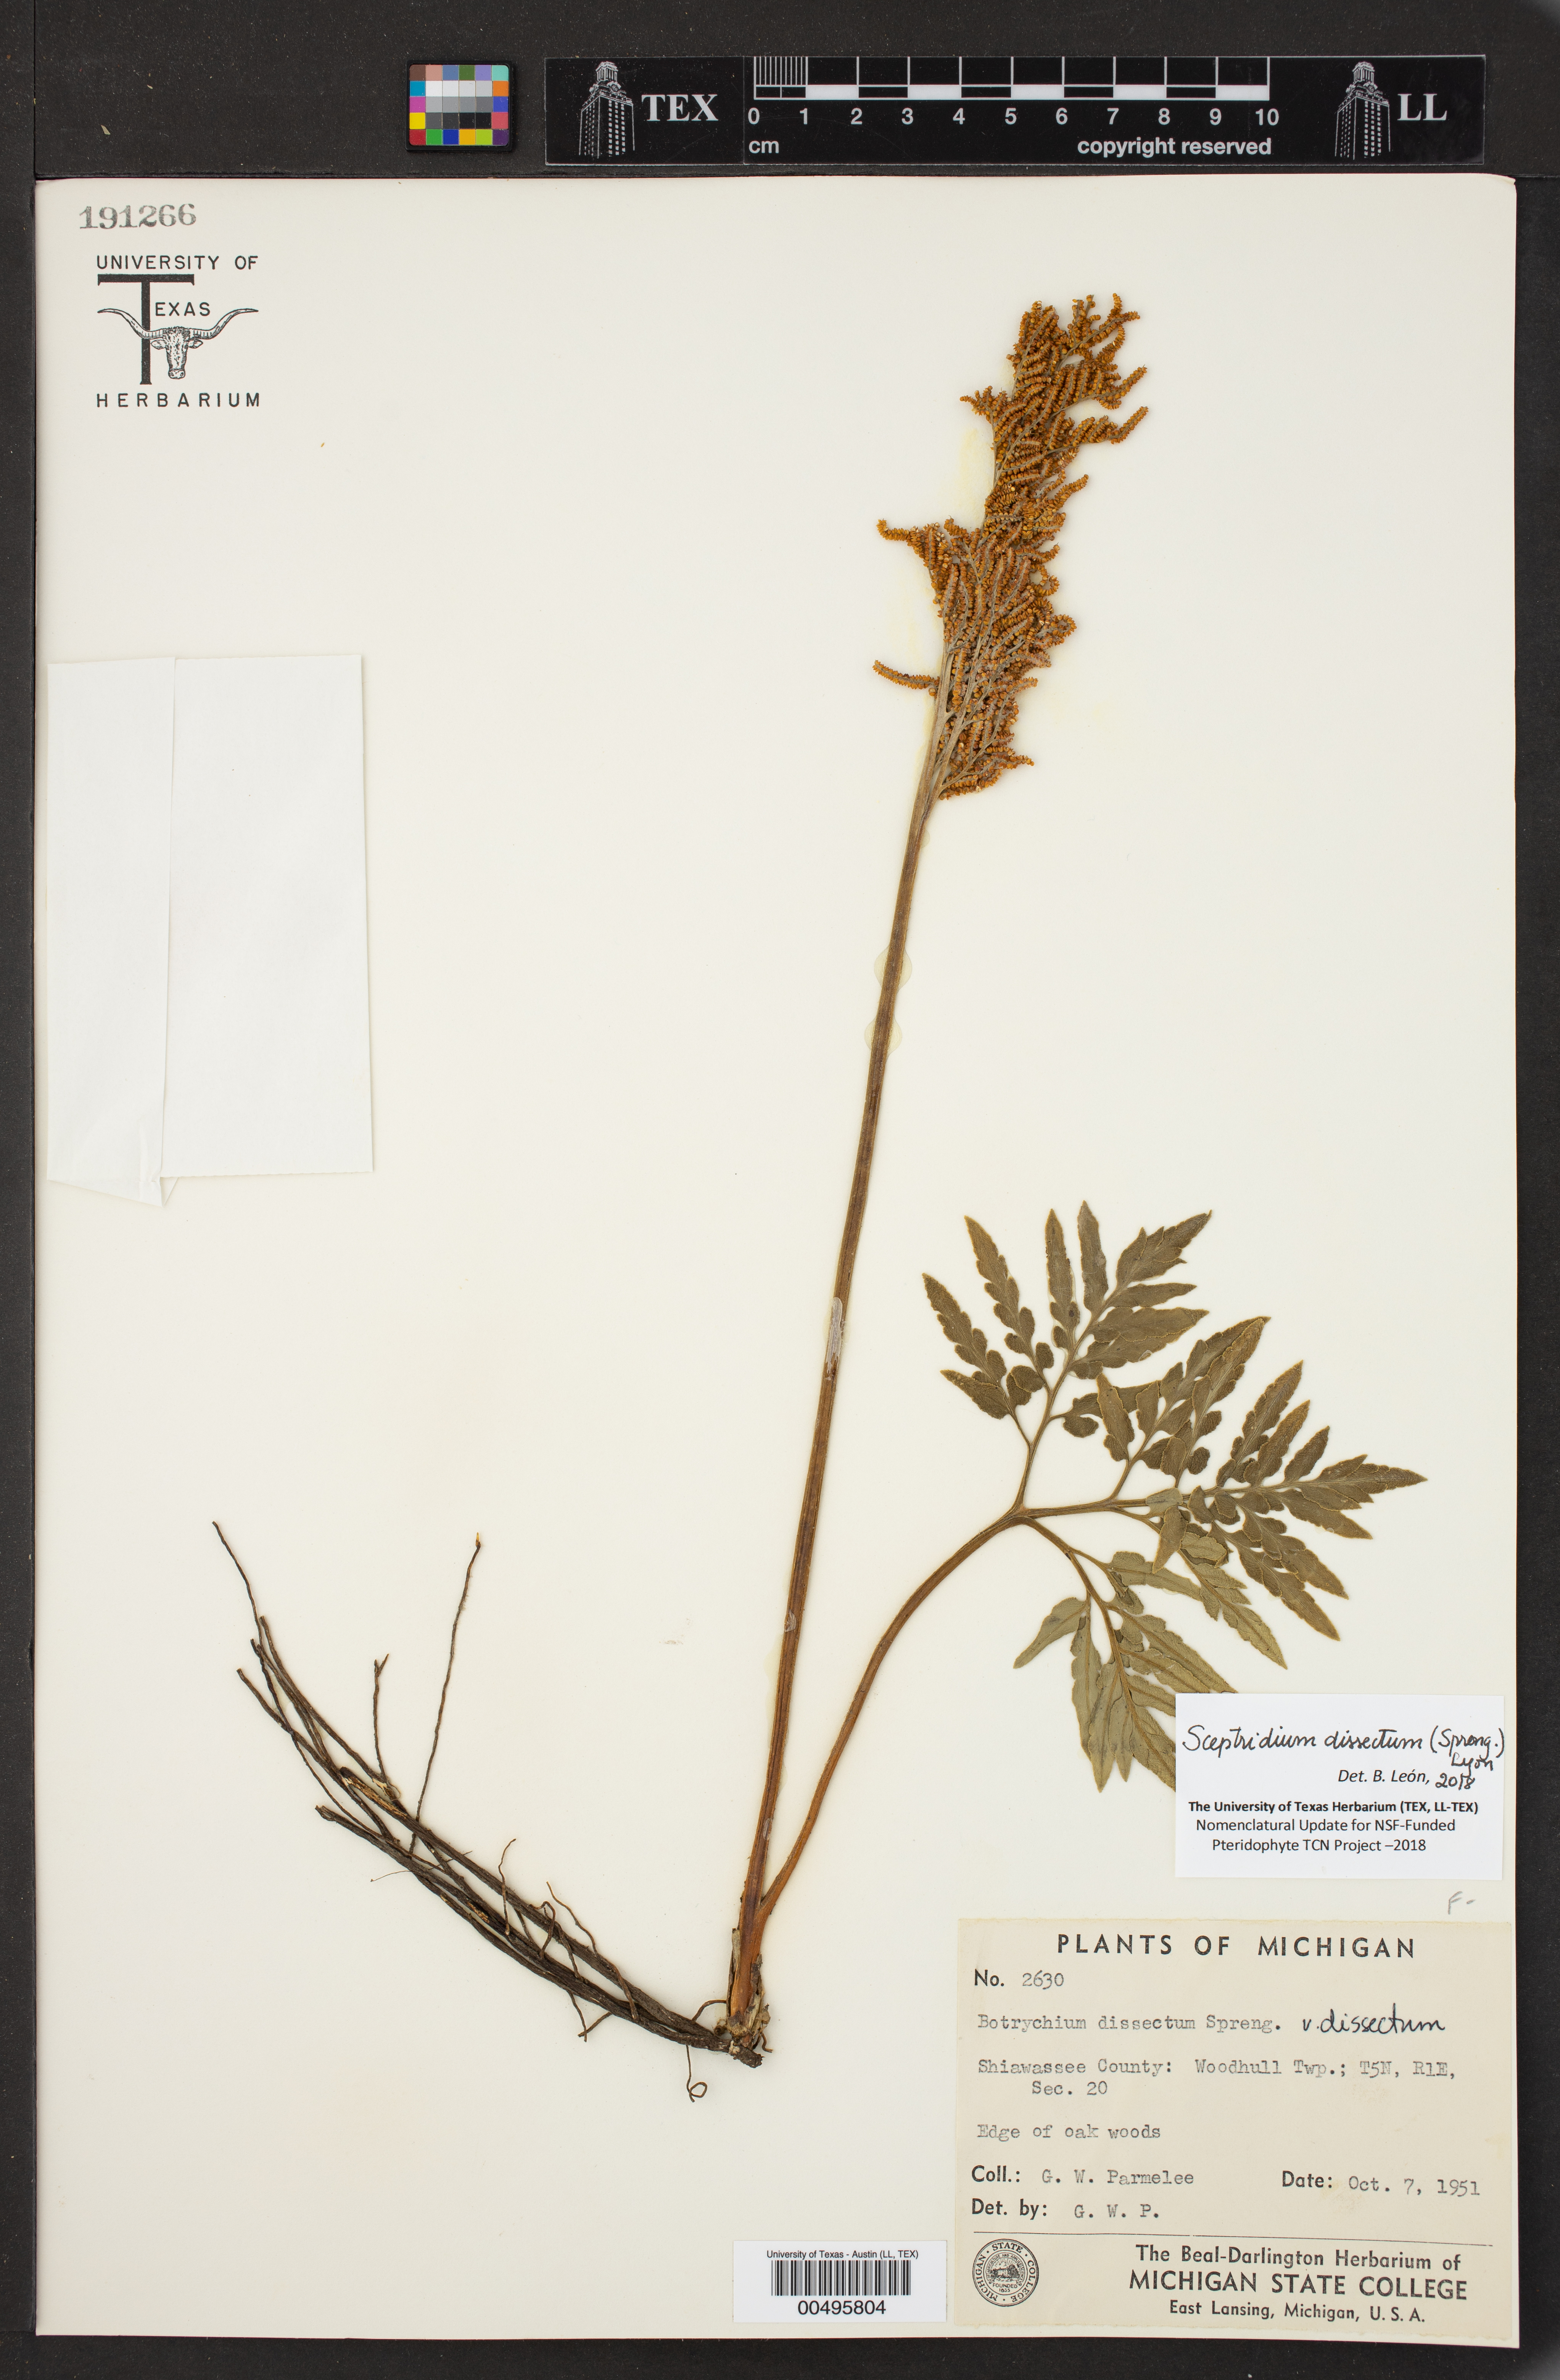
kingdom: Plantae
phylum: Tracheophyta
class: Polypodiopsida
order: Ophioglossales
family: Ophioglossaceae
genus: Sceptridium
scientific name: Sceptridium dissectum
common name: Cut-leaved grapefern
